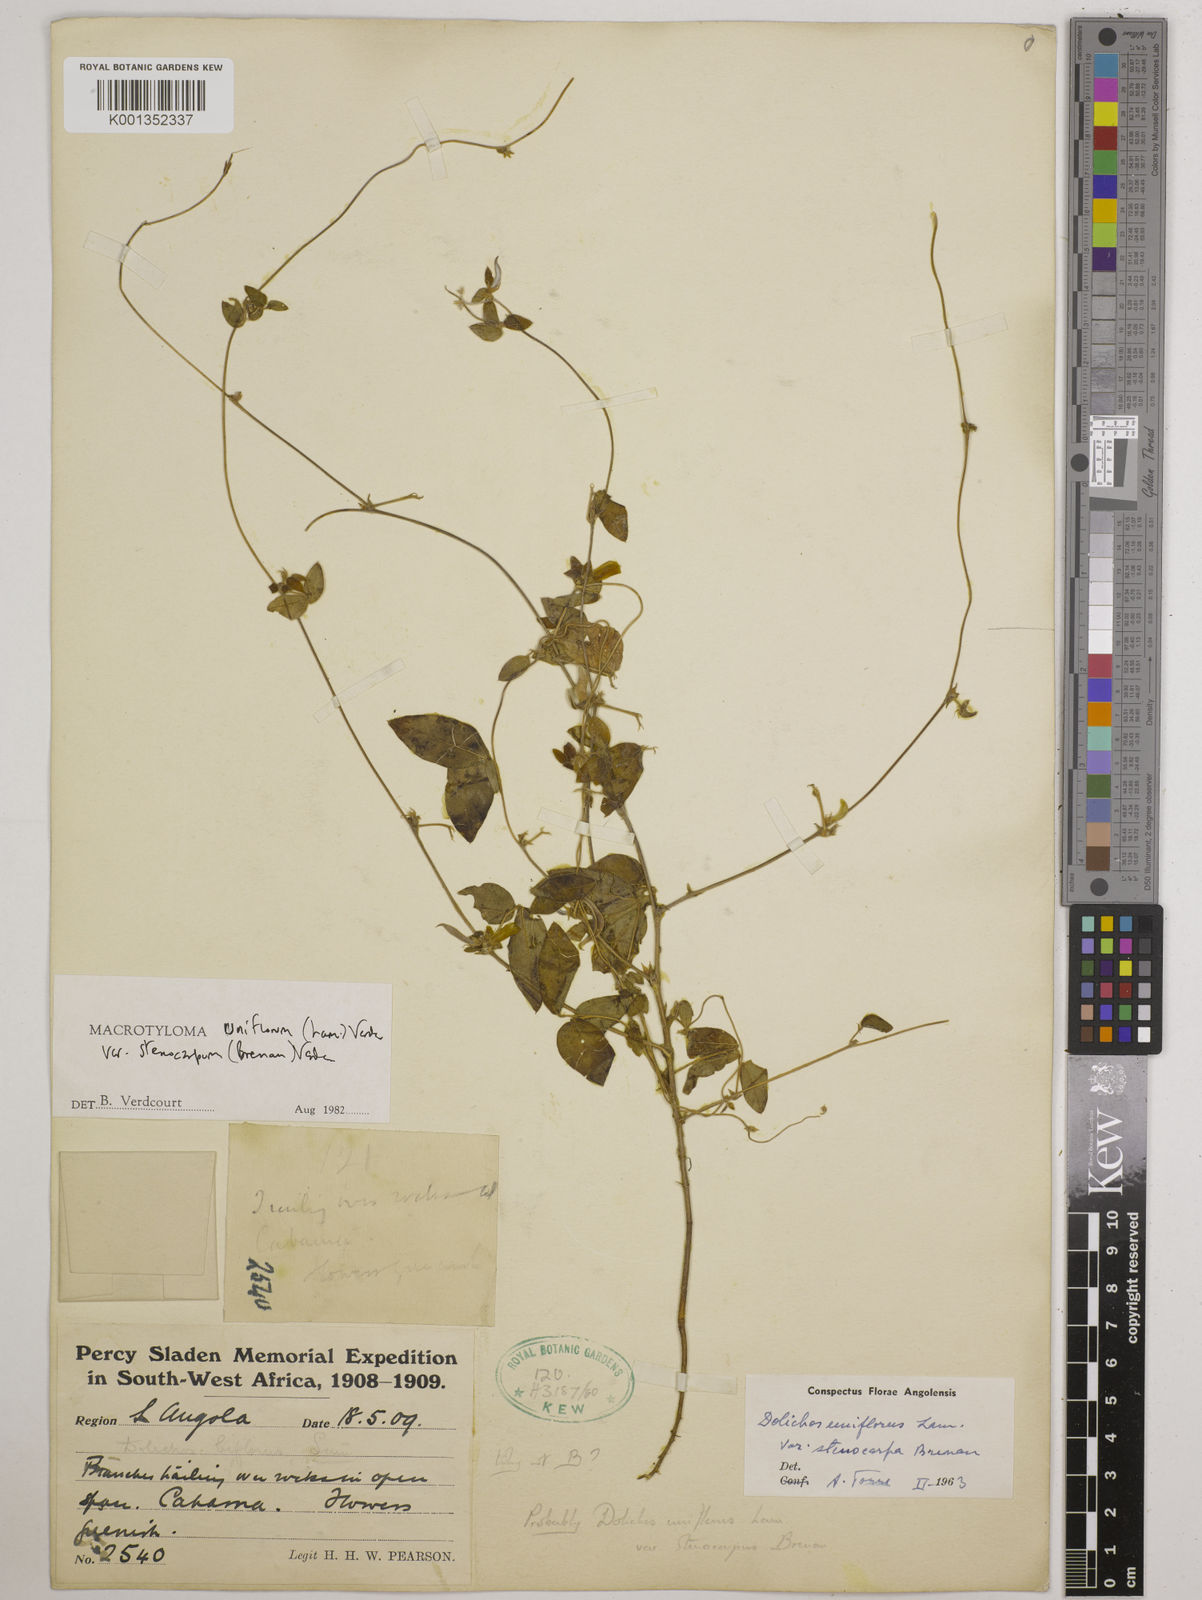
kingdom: Plantae
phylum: Tracheophyta
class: Magnoliopsida
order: Fabales
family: Fabaceae
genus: Macrotyloma
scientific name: Macrotyloma
